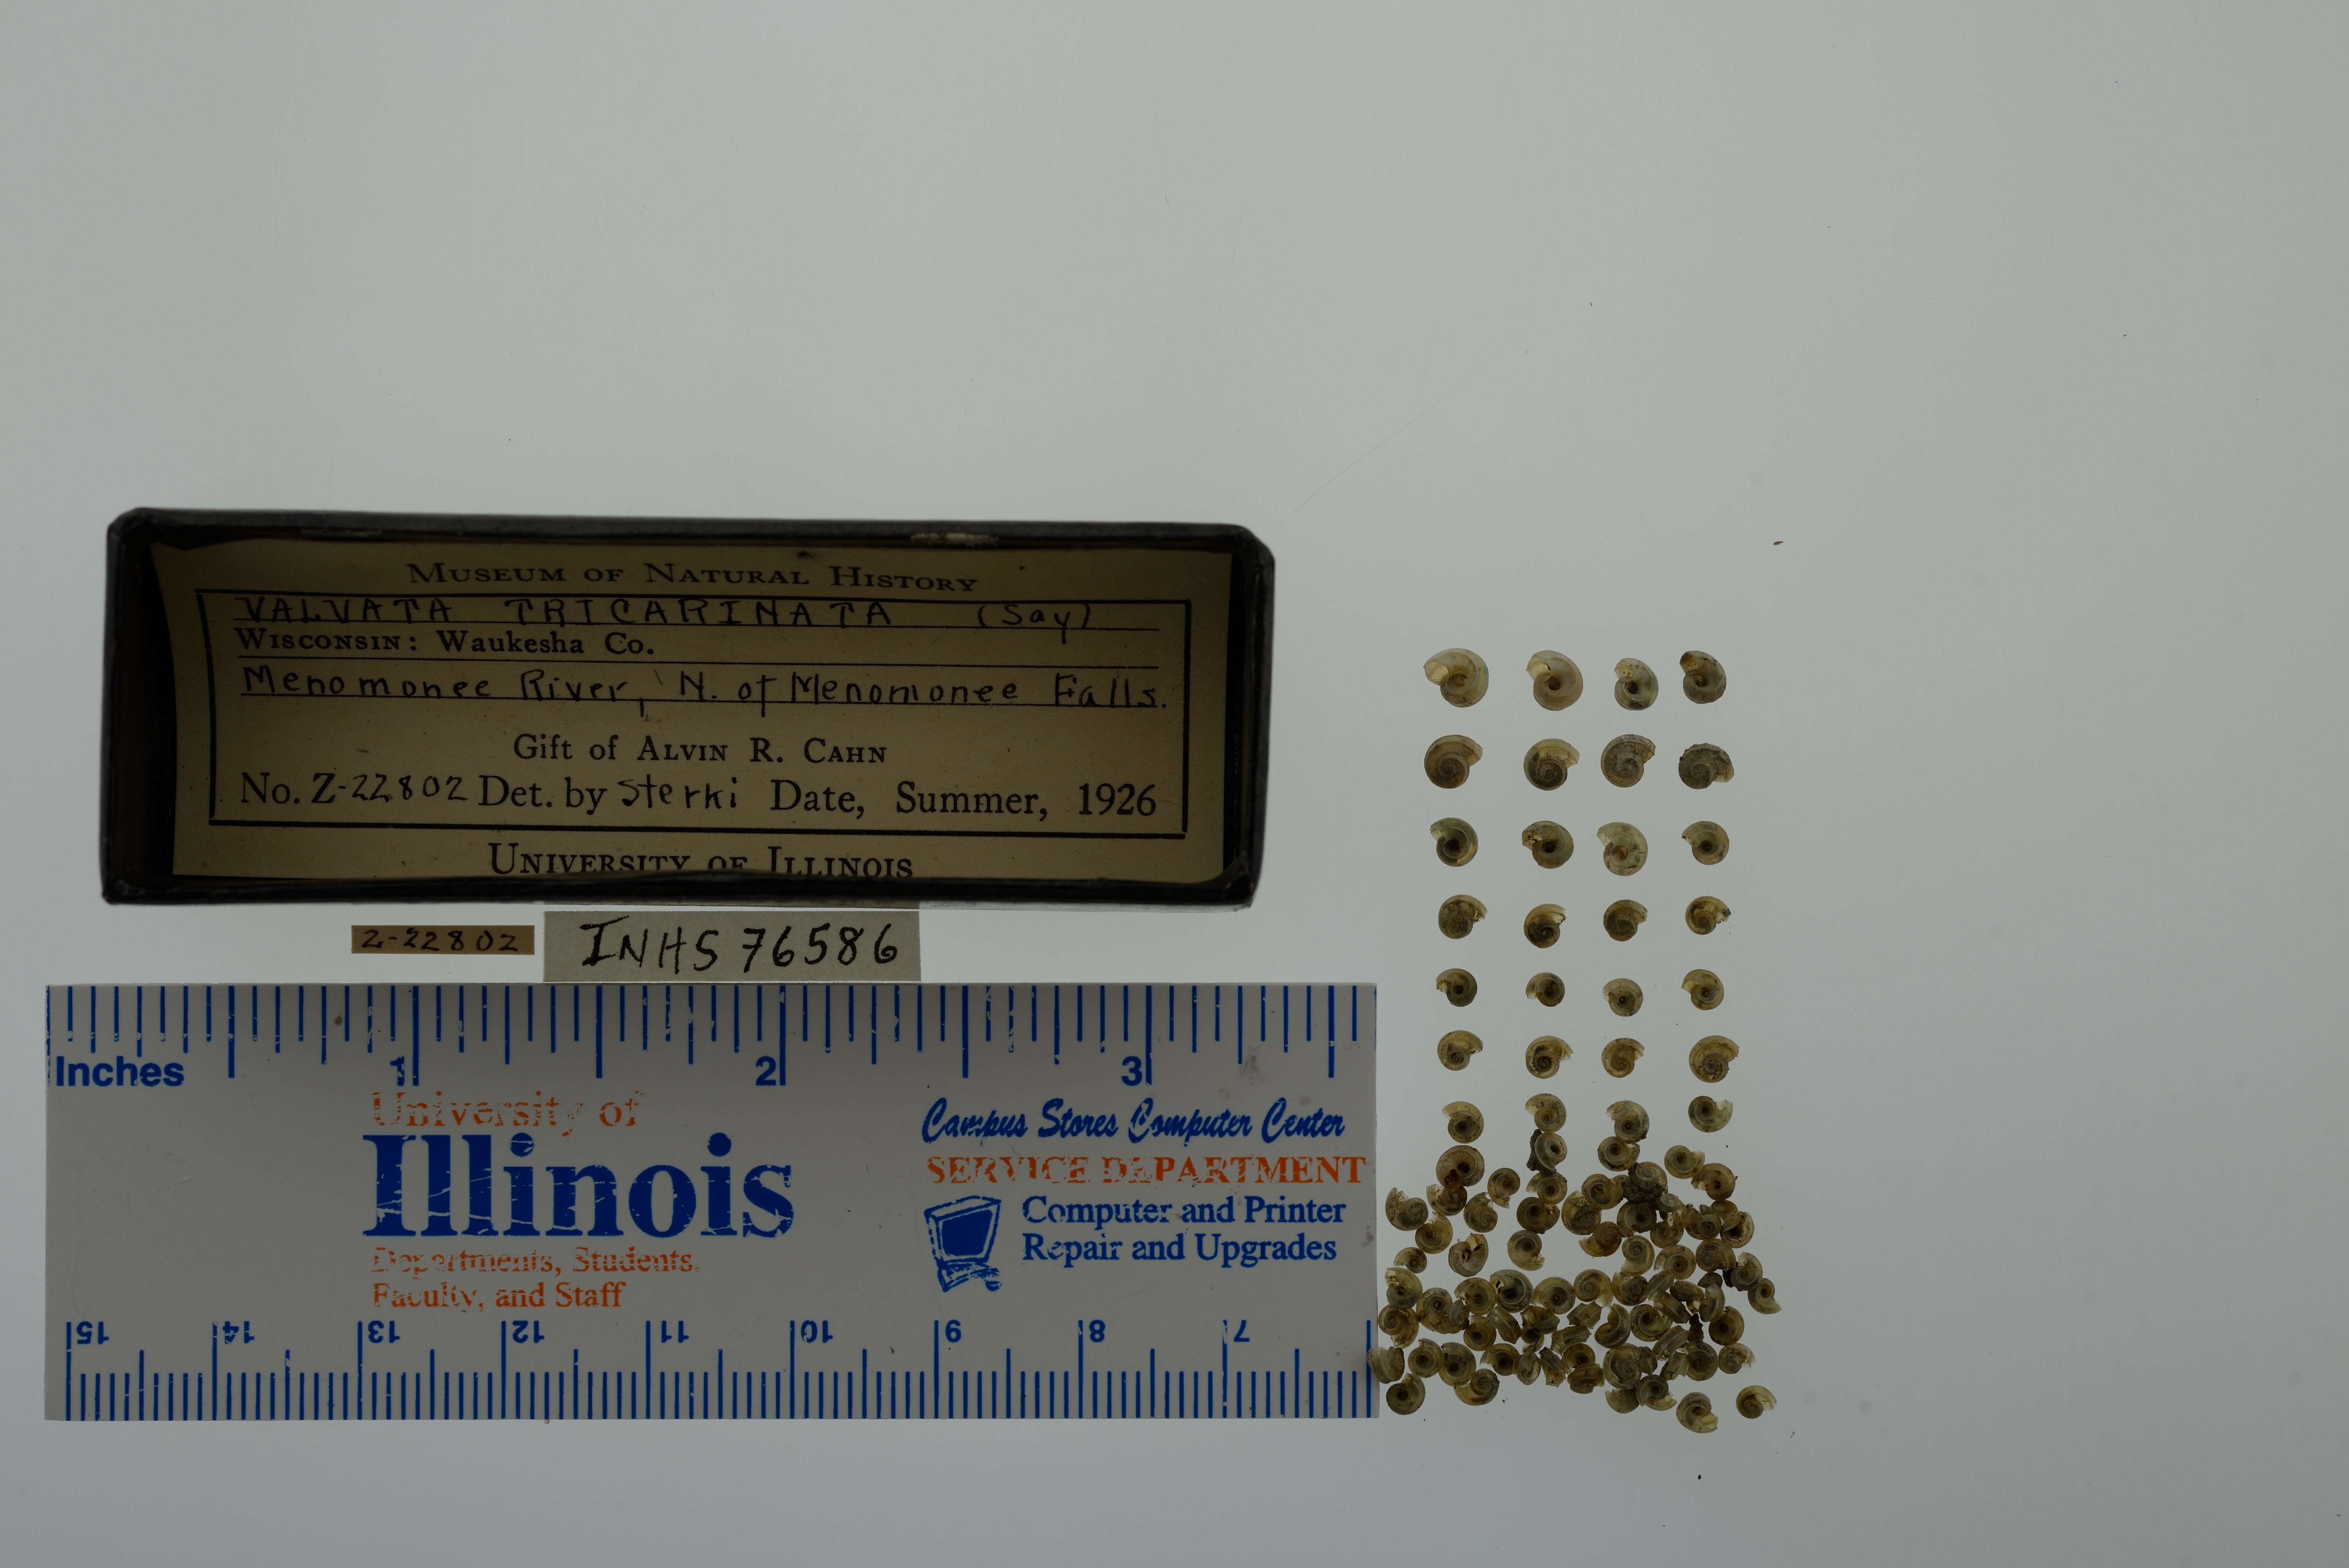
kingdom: Animalia
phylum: Mollusca
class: Gastropoda
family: Valvatidae
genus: Valvata
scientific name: Valvata tricarinata
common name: Three-ridge valvata
